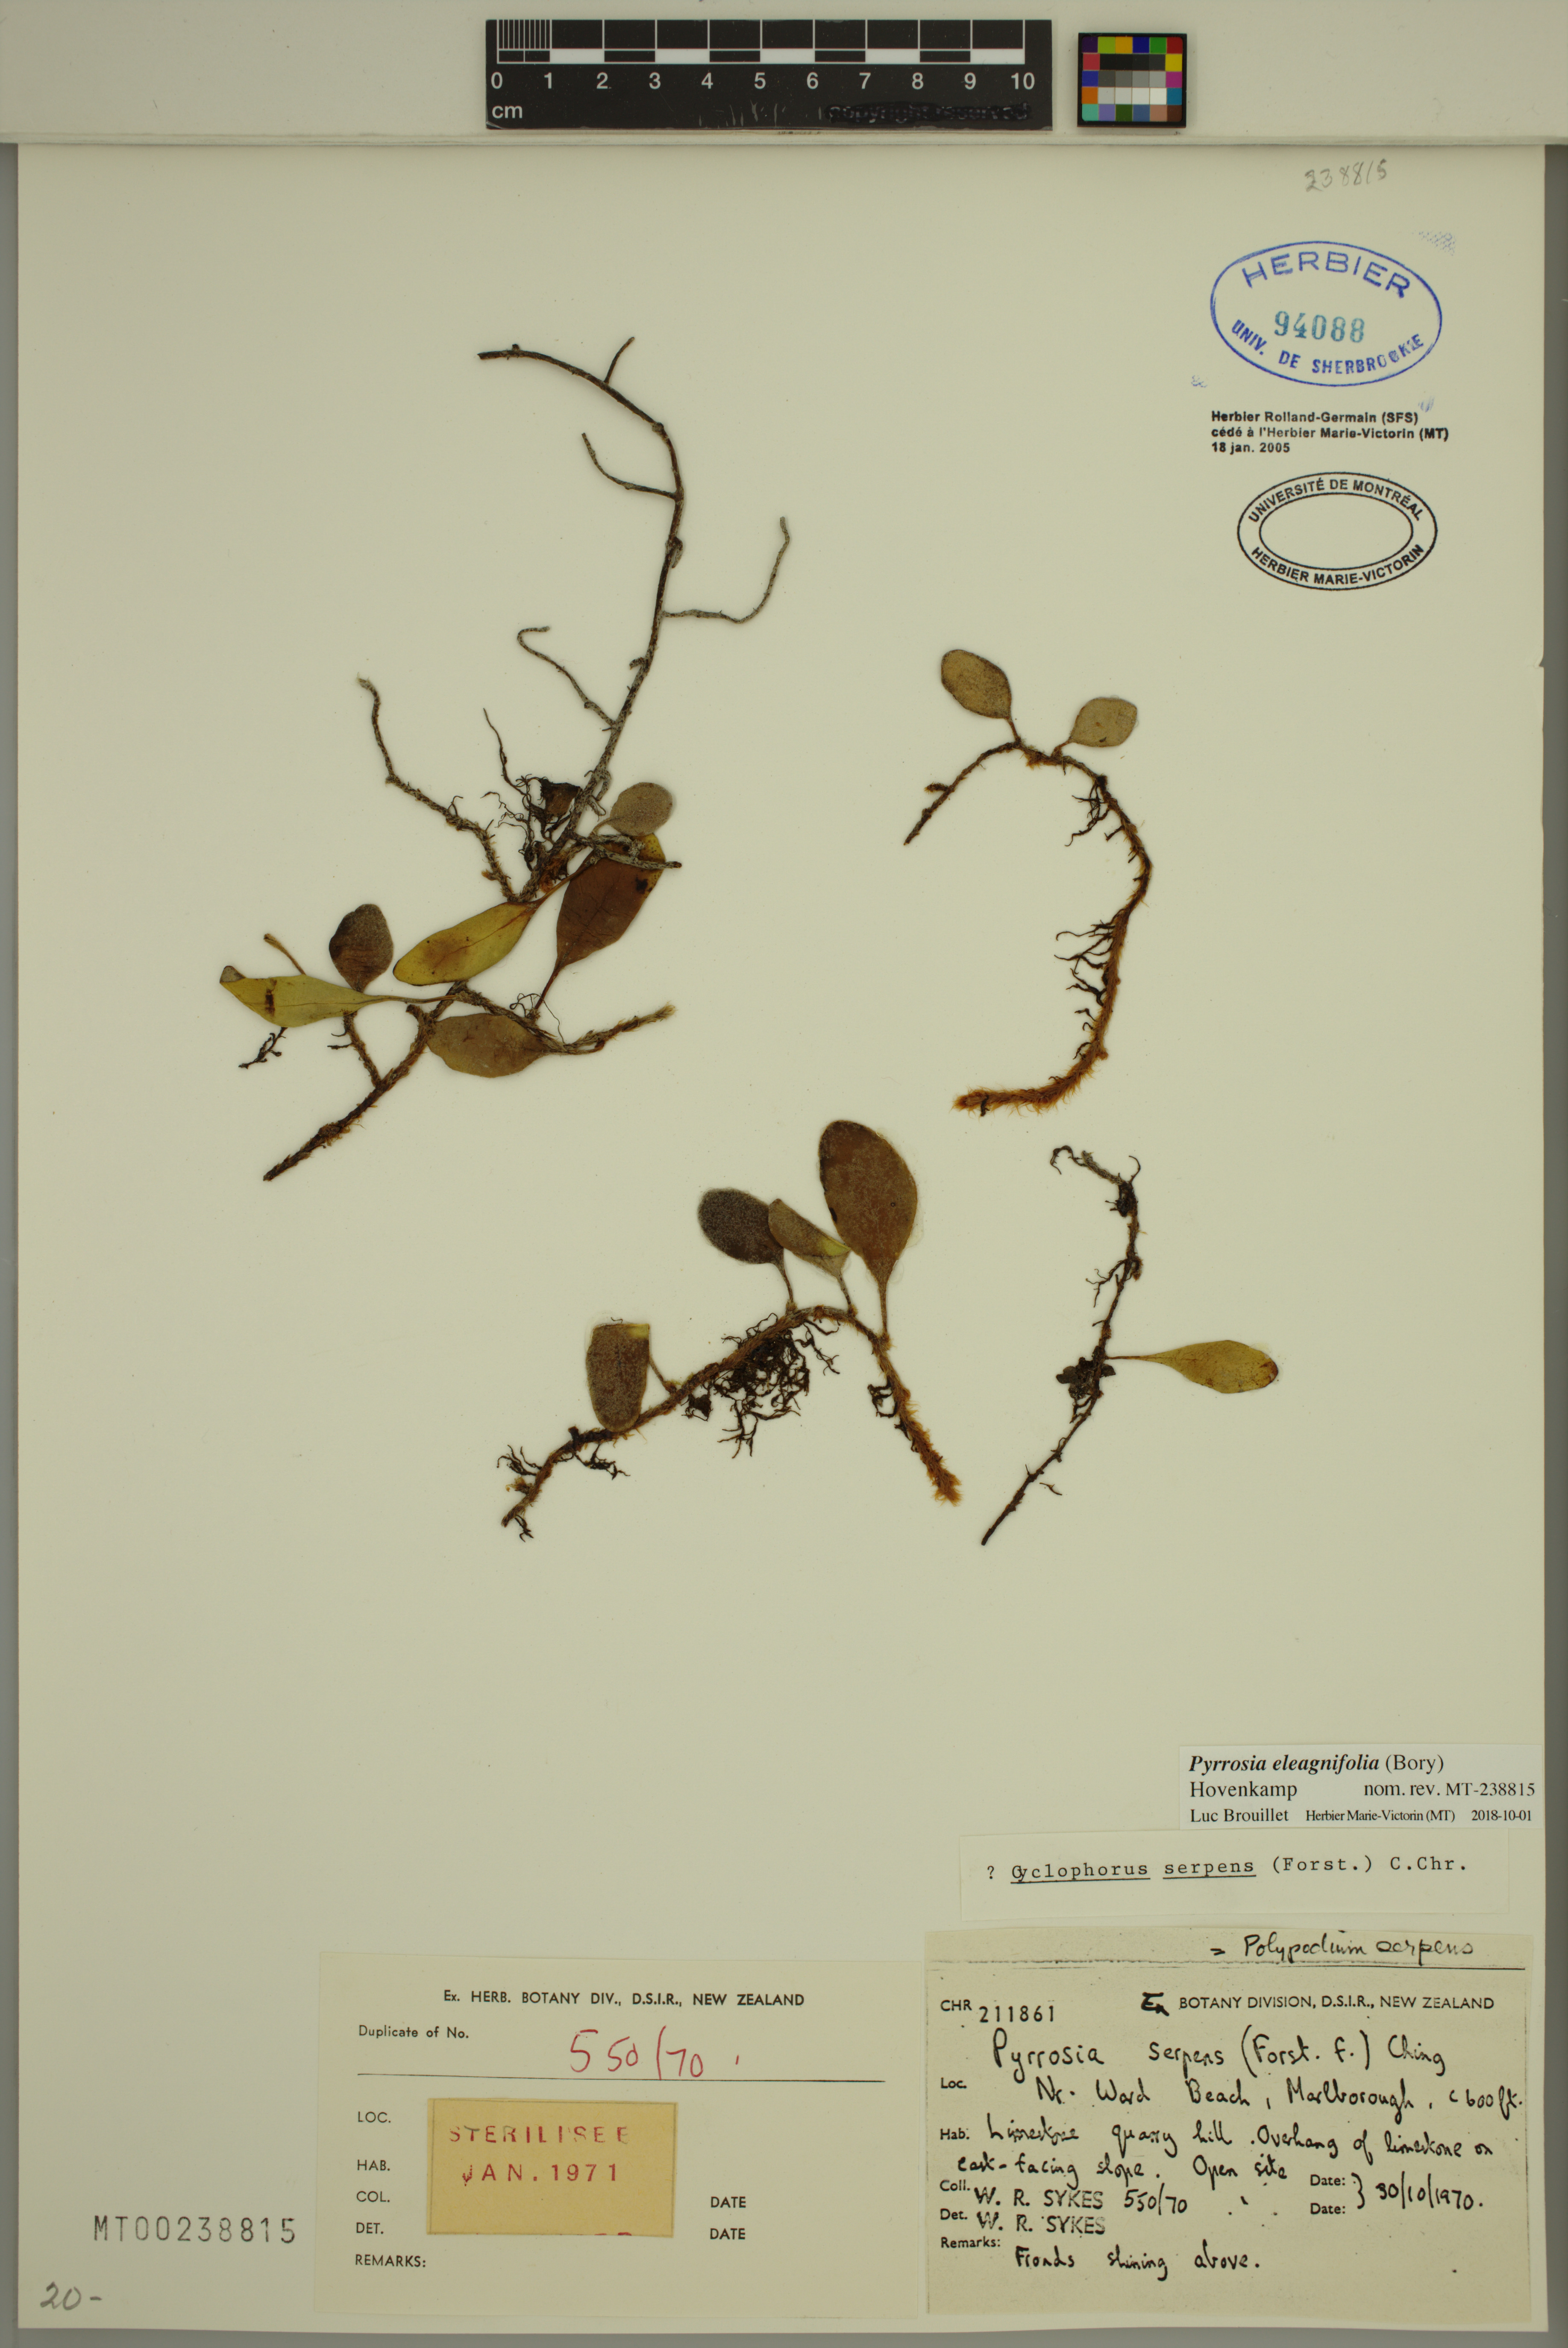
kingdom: Plantae
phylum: Tracheophyta
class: Polypodiopsida
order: Polypodiales
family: Polypodiaceae
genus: Pyrrosia
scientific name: Pyrrosia eleagnifolia
